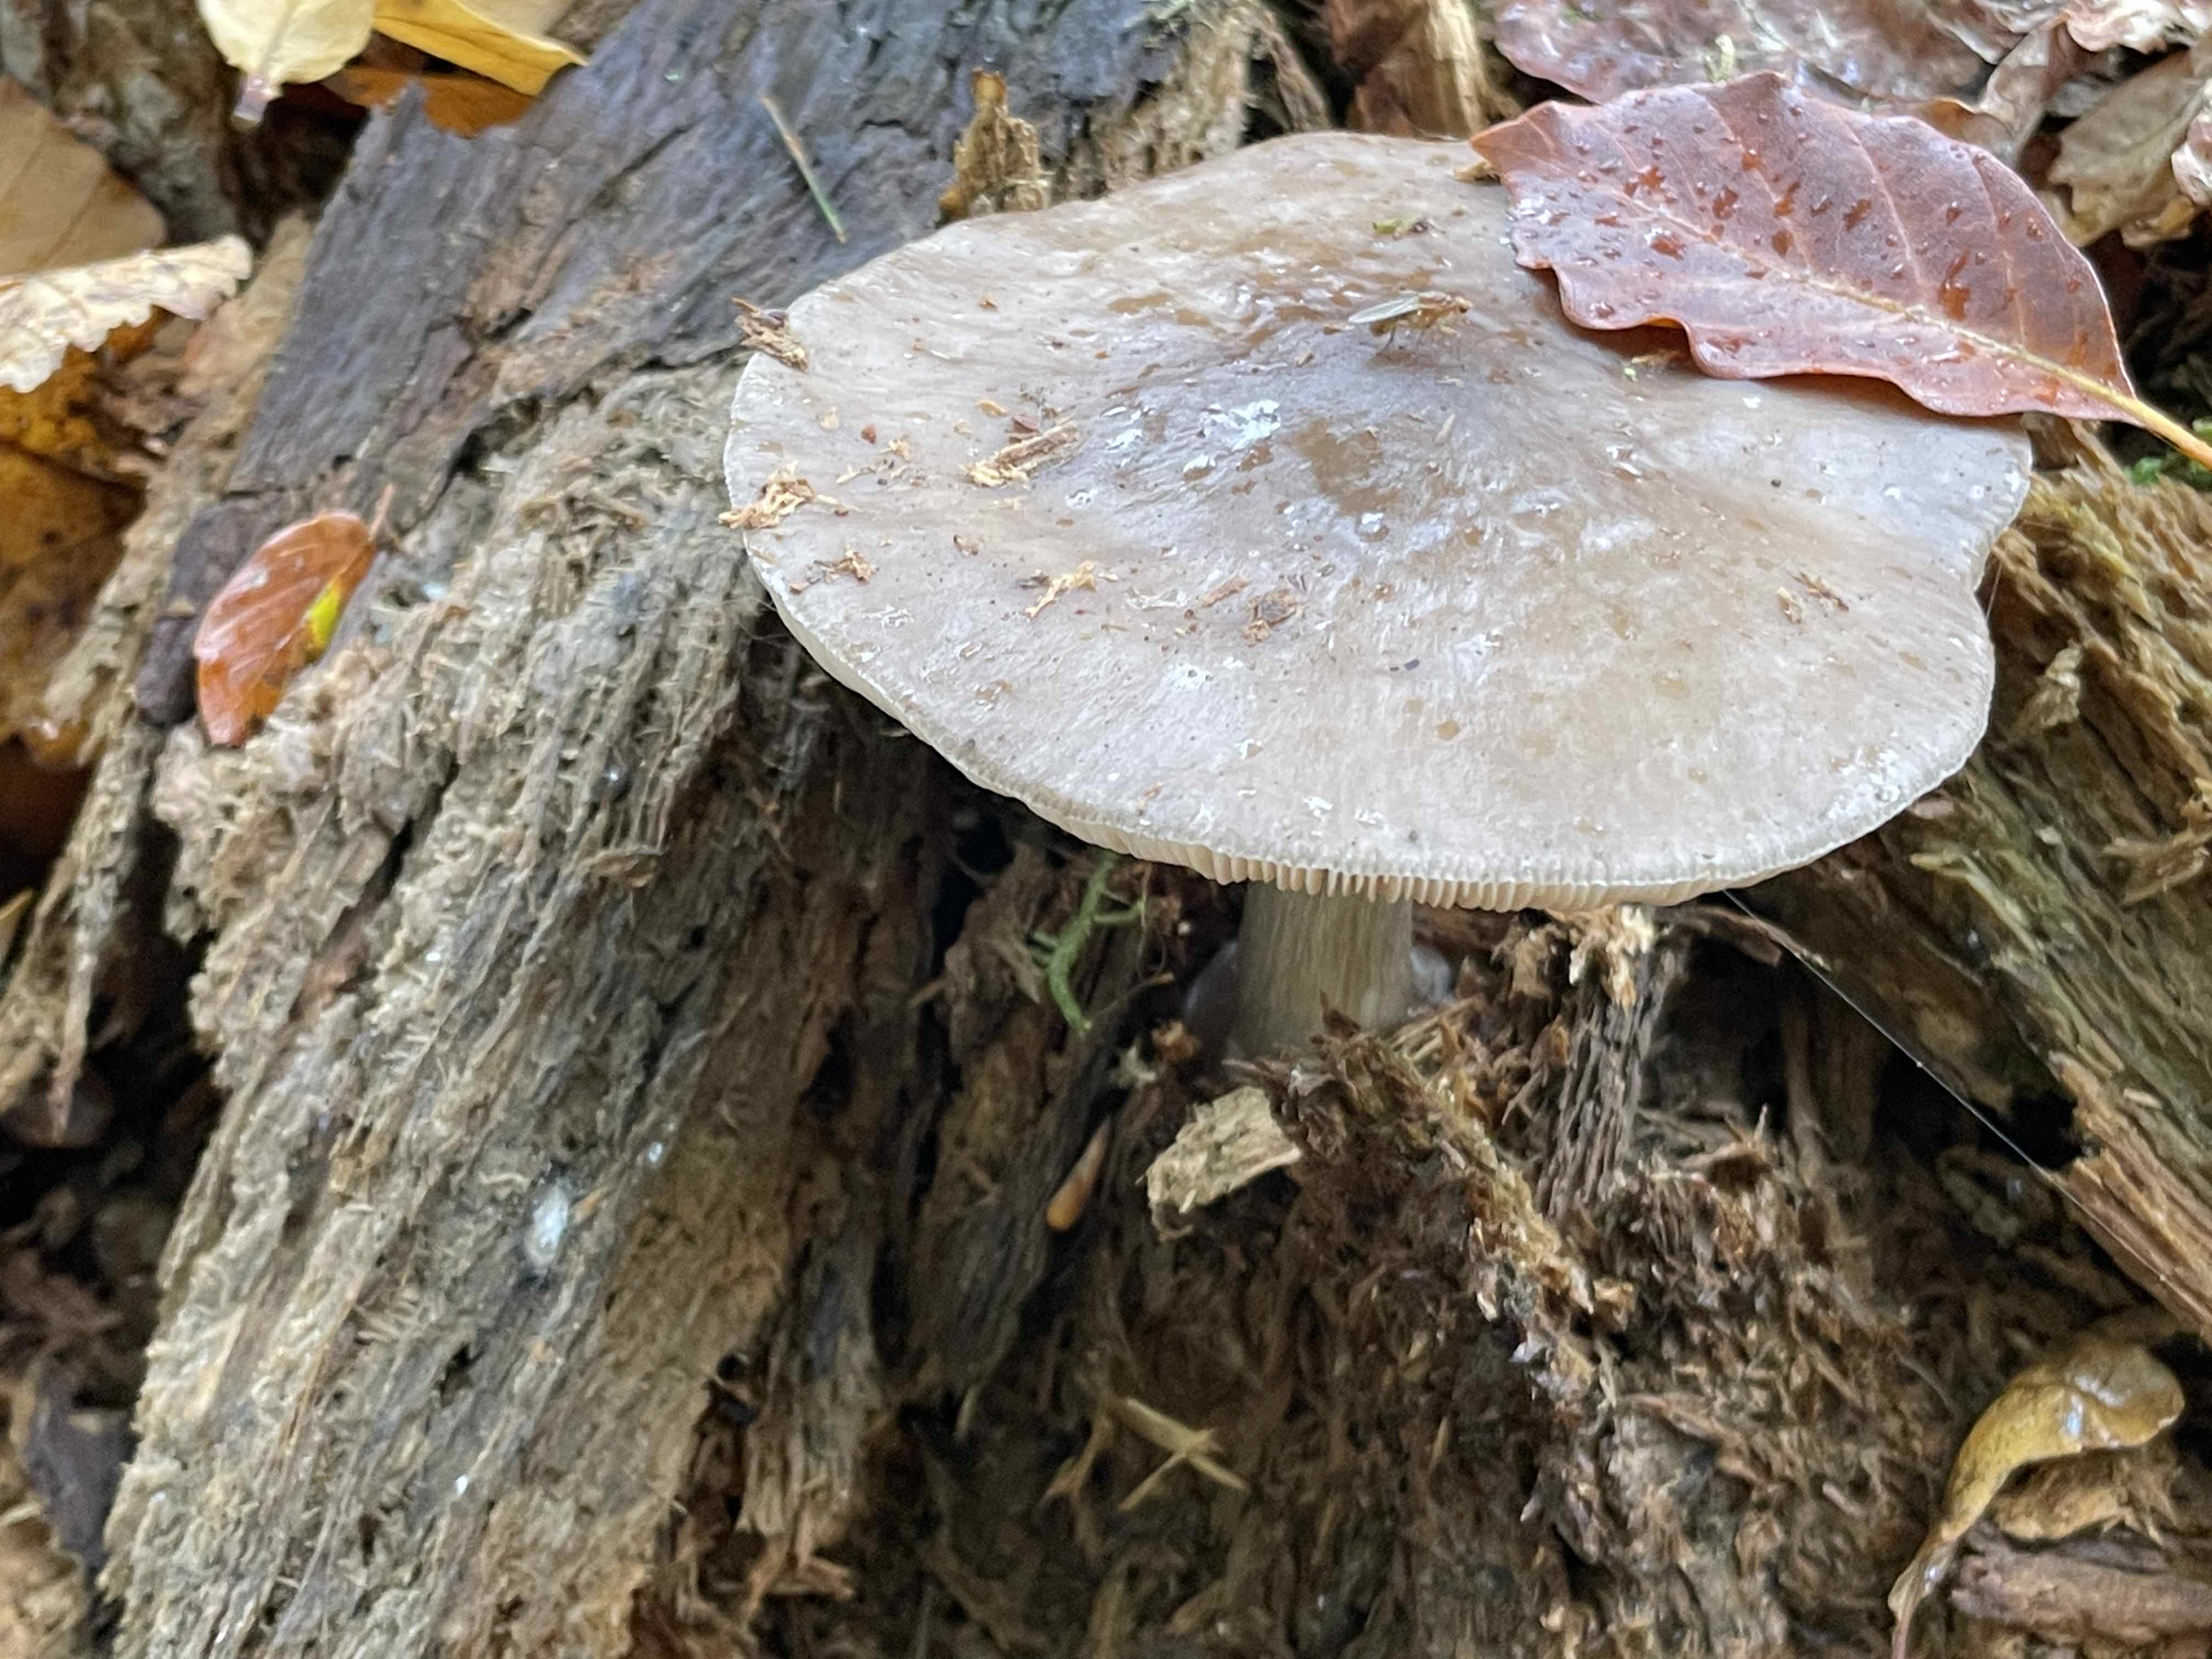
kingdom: Fungi
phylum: Basidiomycota
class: Agaricomycetes
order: Agaricales
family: Pluteaceae
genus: Pluteus
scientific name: Pluteus cervinus
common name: sodfarvet skærmhat
